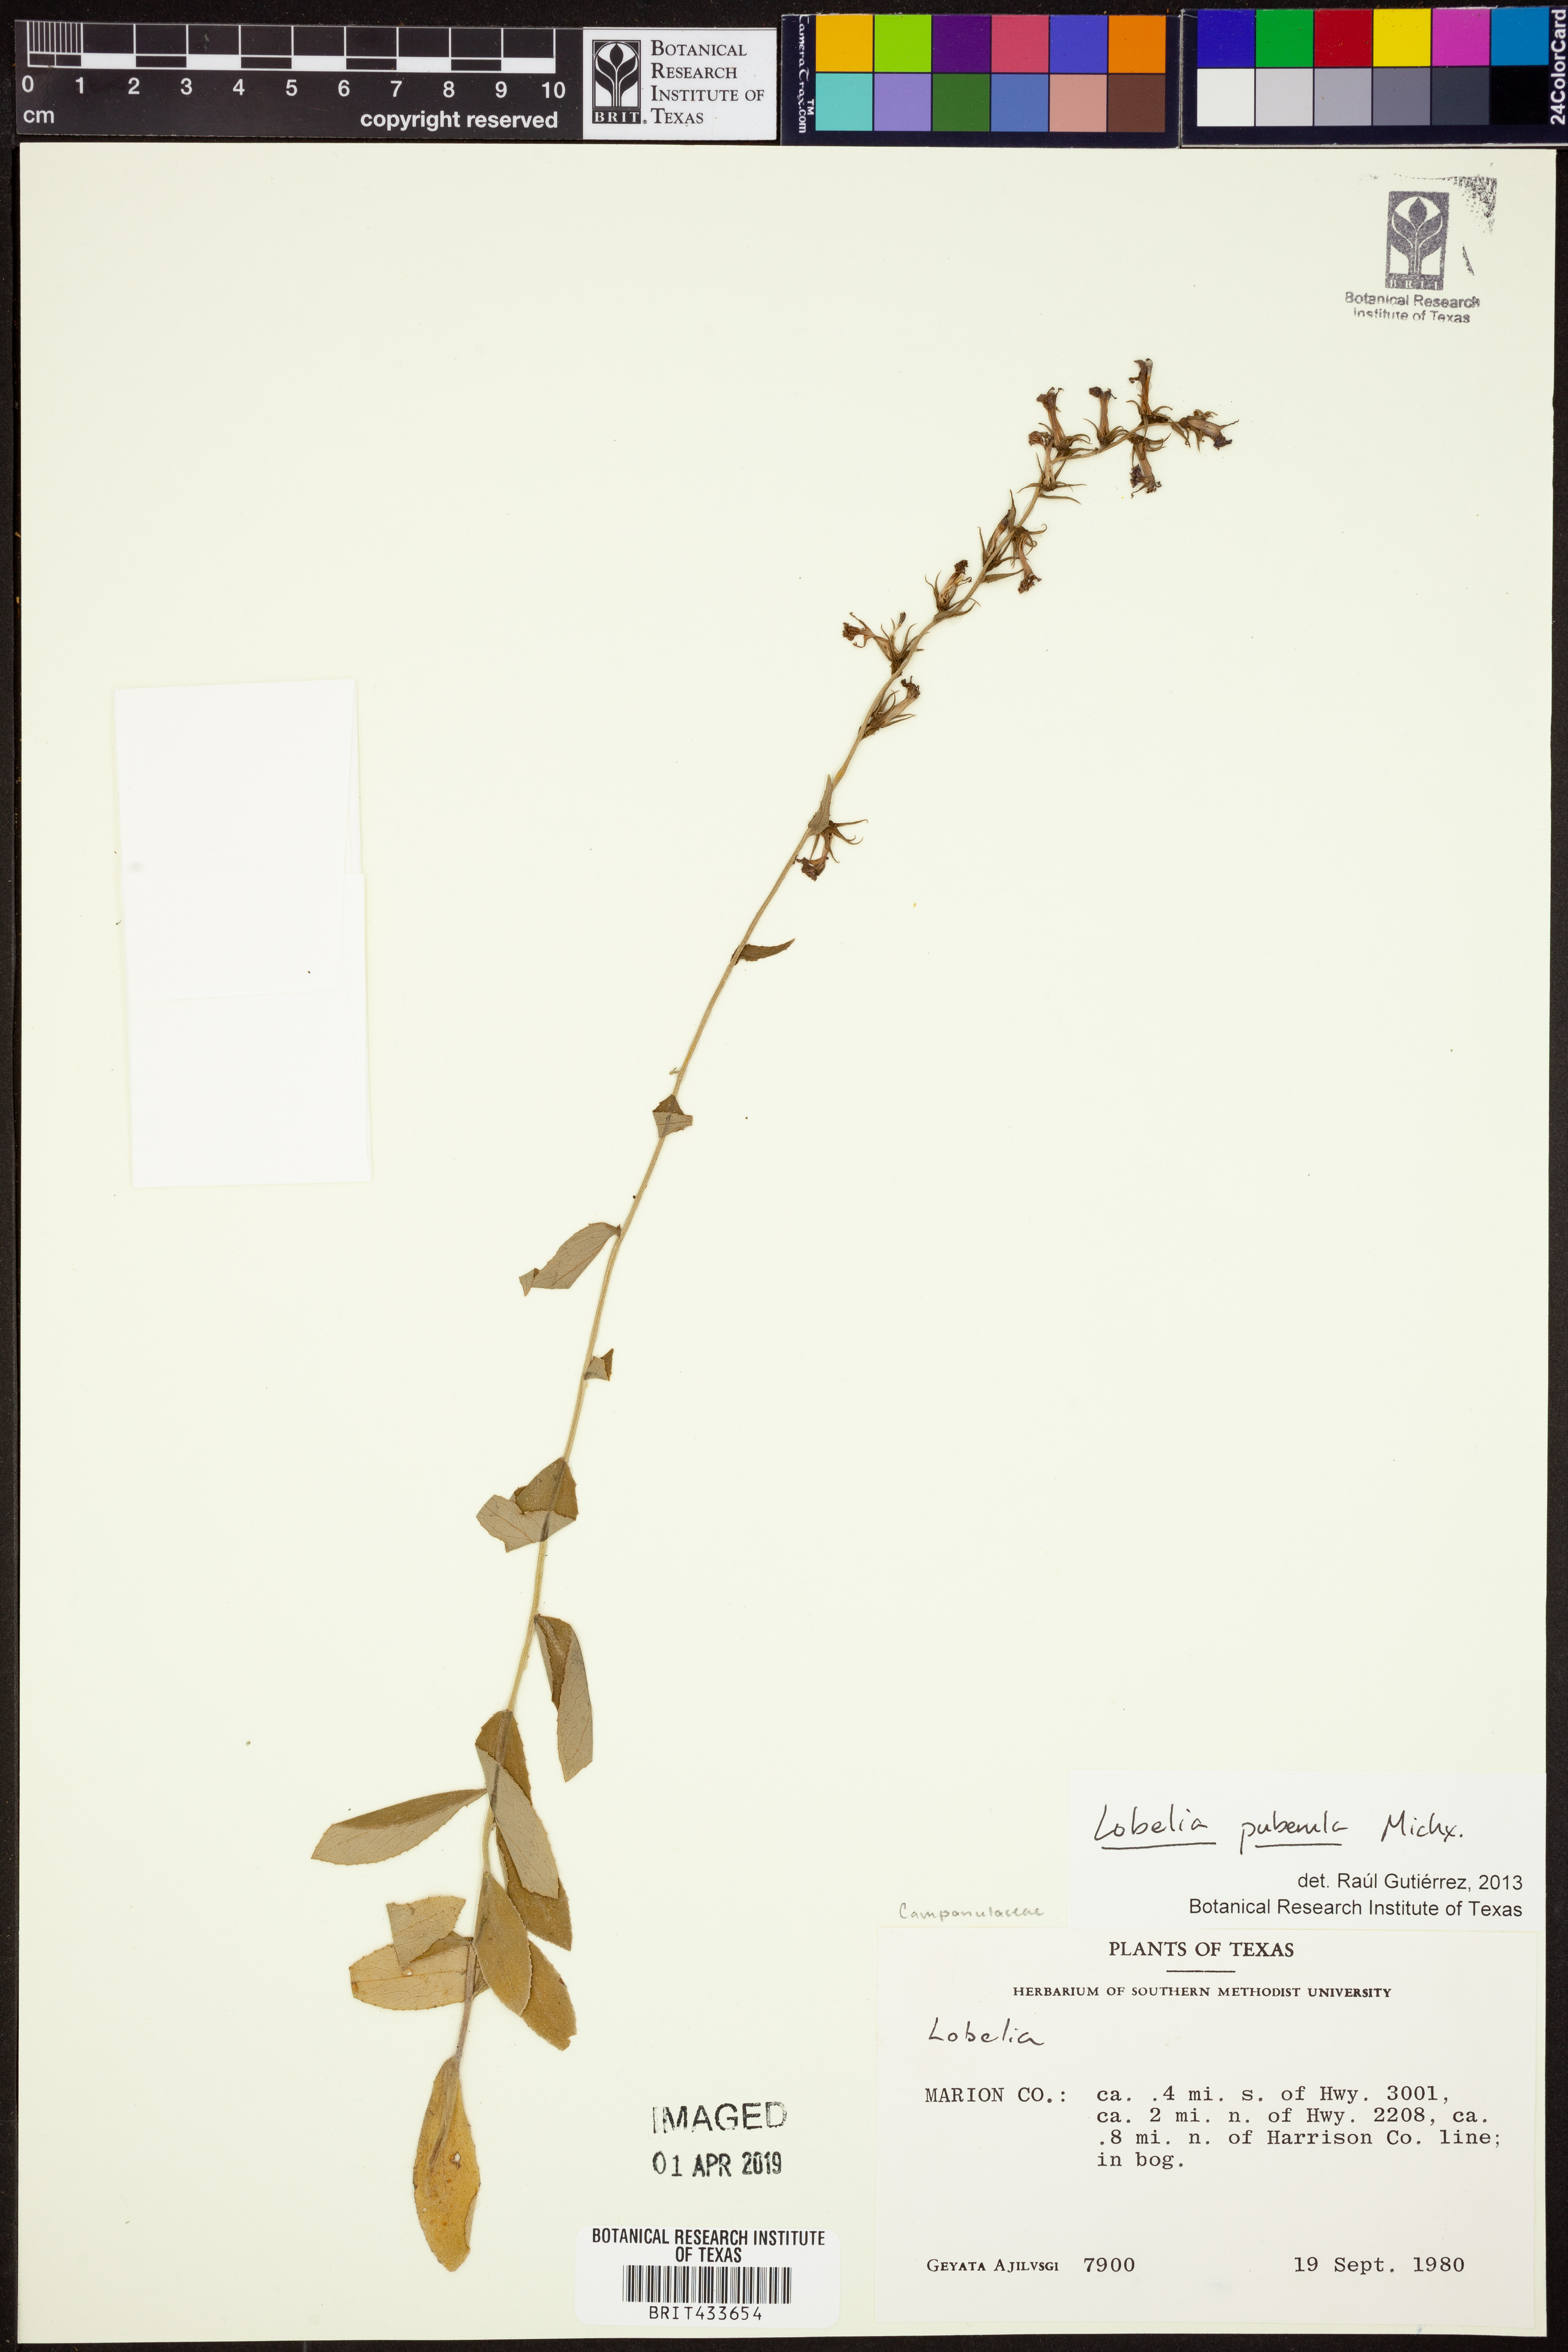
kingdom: Plantae
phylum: Tracheophyta
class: Magnoliopsida
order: Asterales
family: Campanulaceae
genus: Lobelia
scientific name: Lobelia puberula
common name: Purple dewdrop
